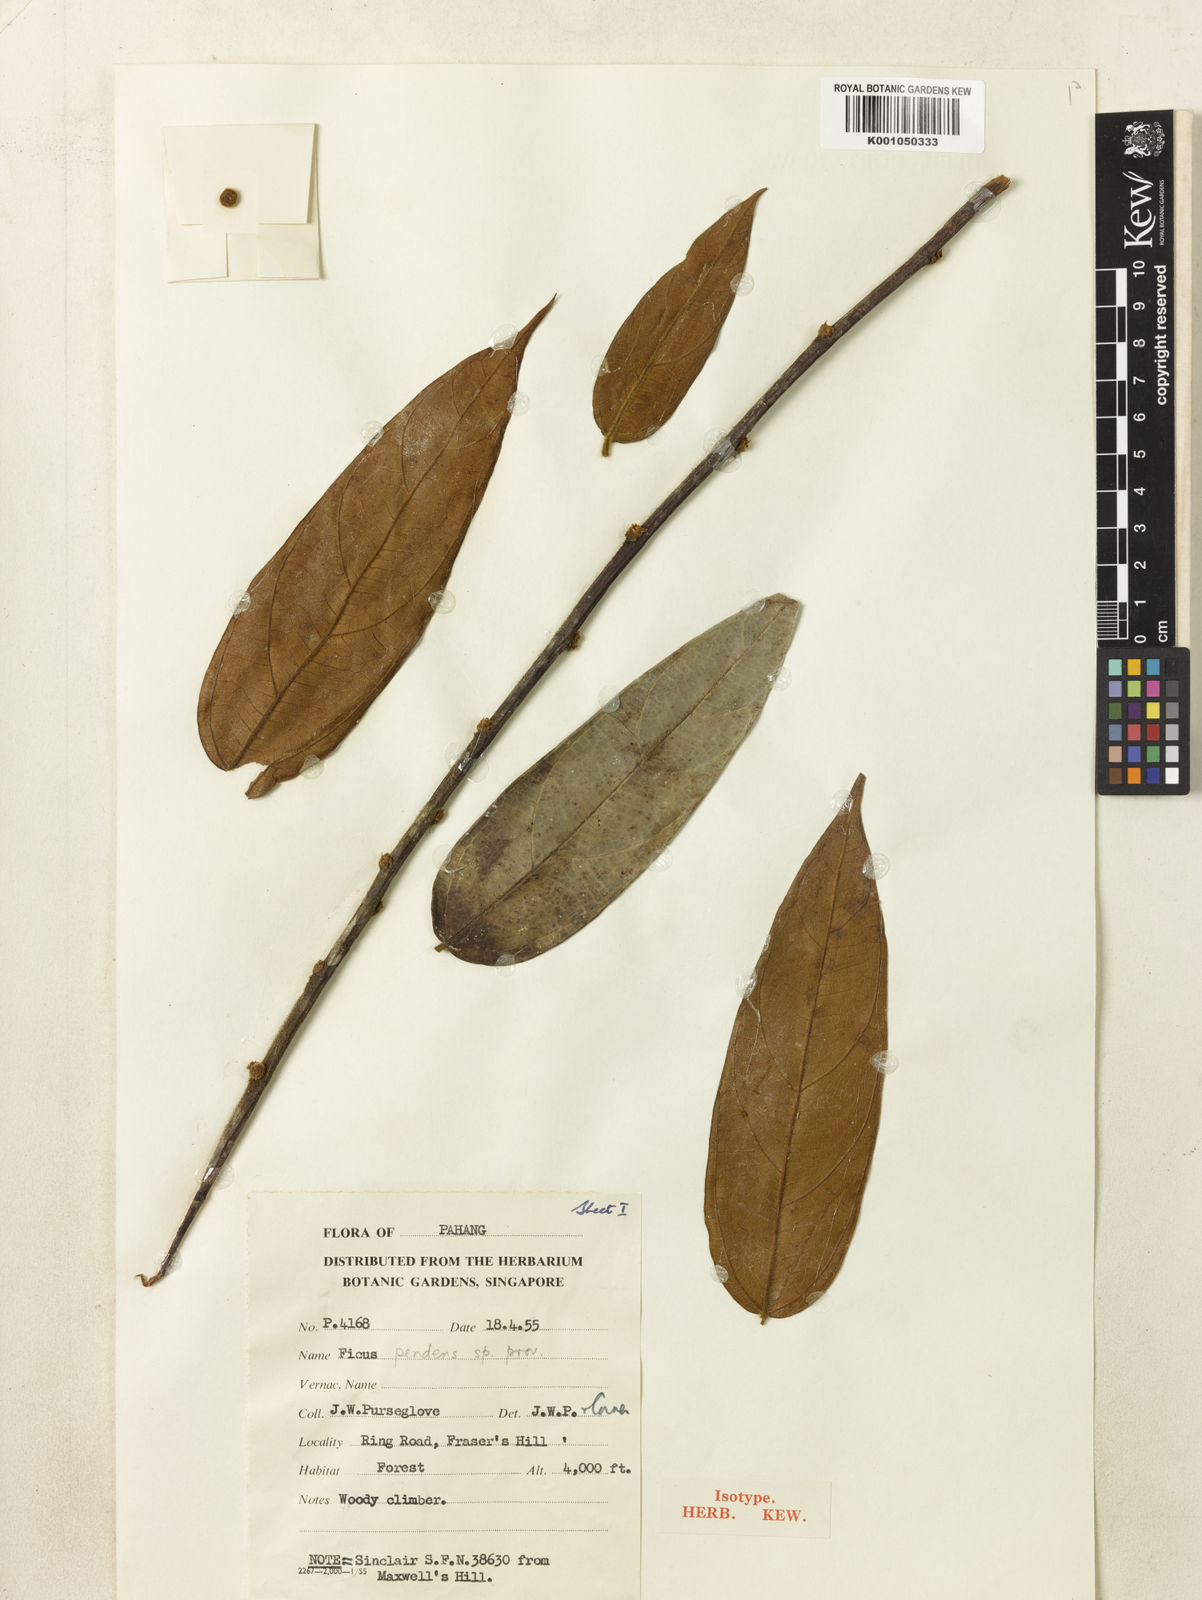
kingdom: Plantae
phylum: Tracheophyta
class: Magnoliopsida
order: Rosales
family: Moraceae
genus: Ficus
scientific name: Ficus pendens
